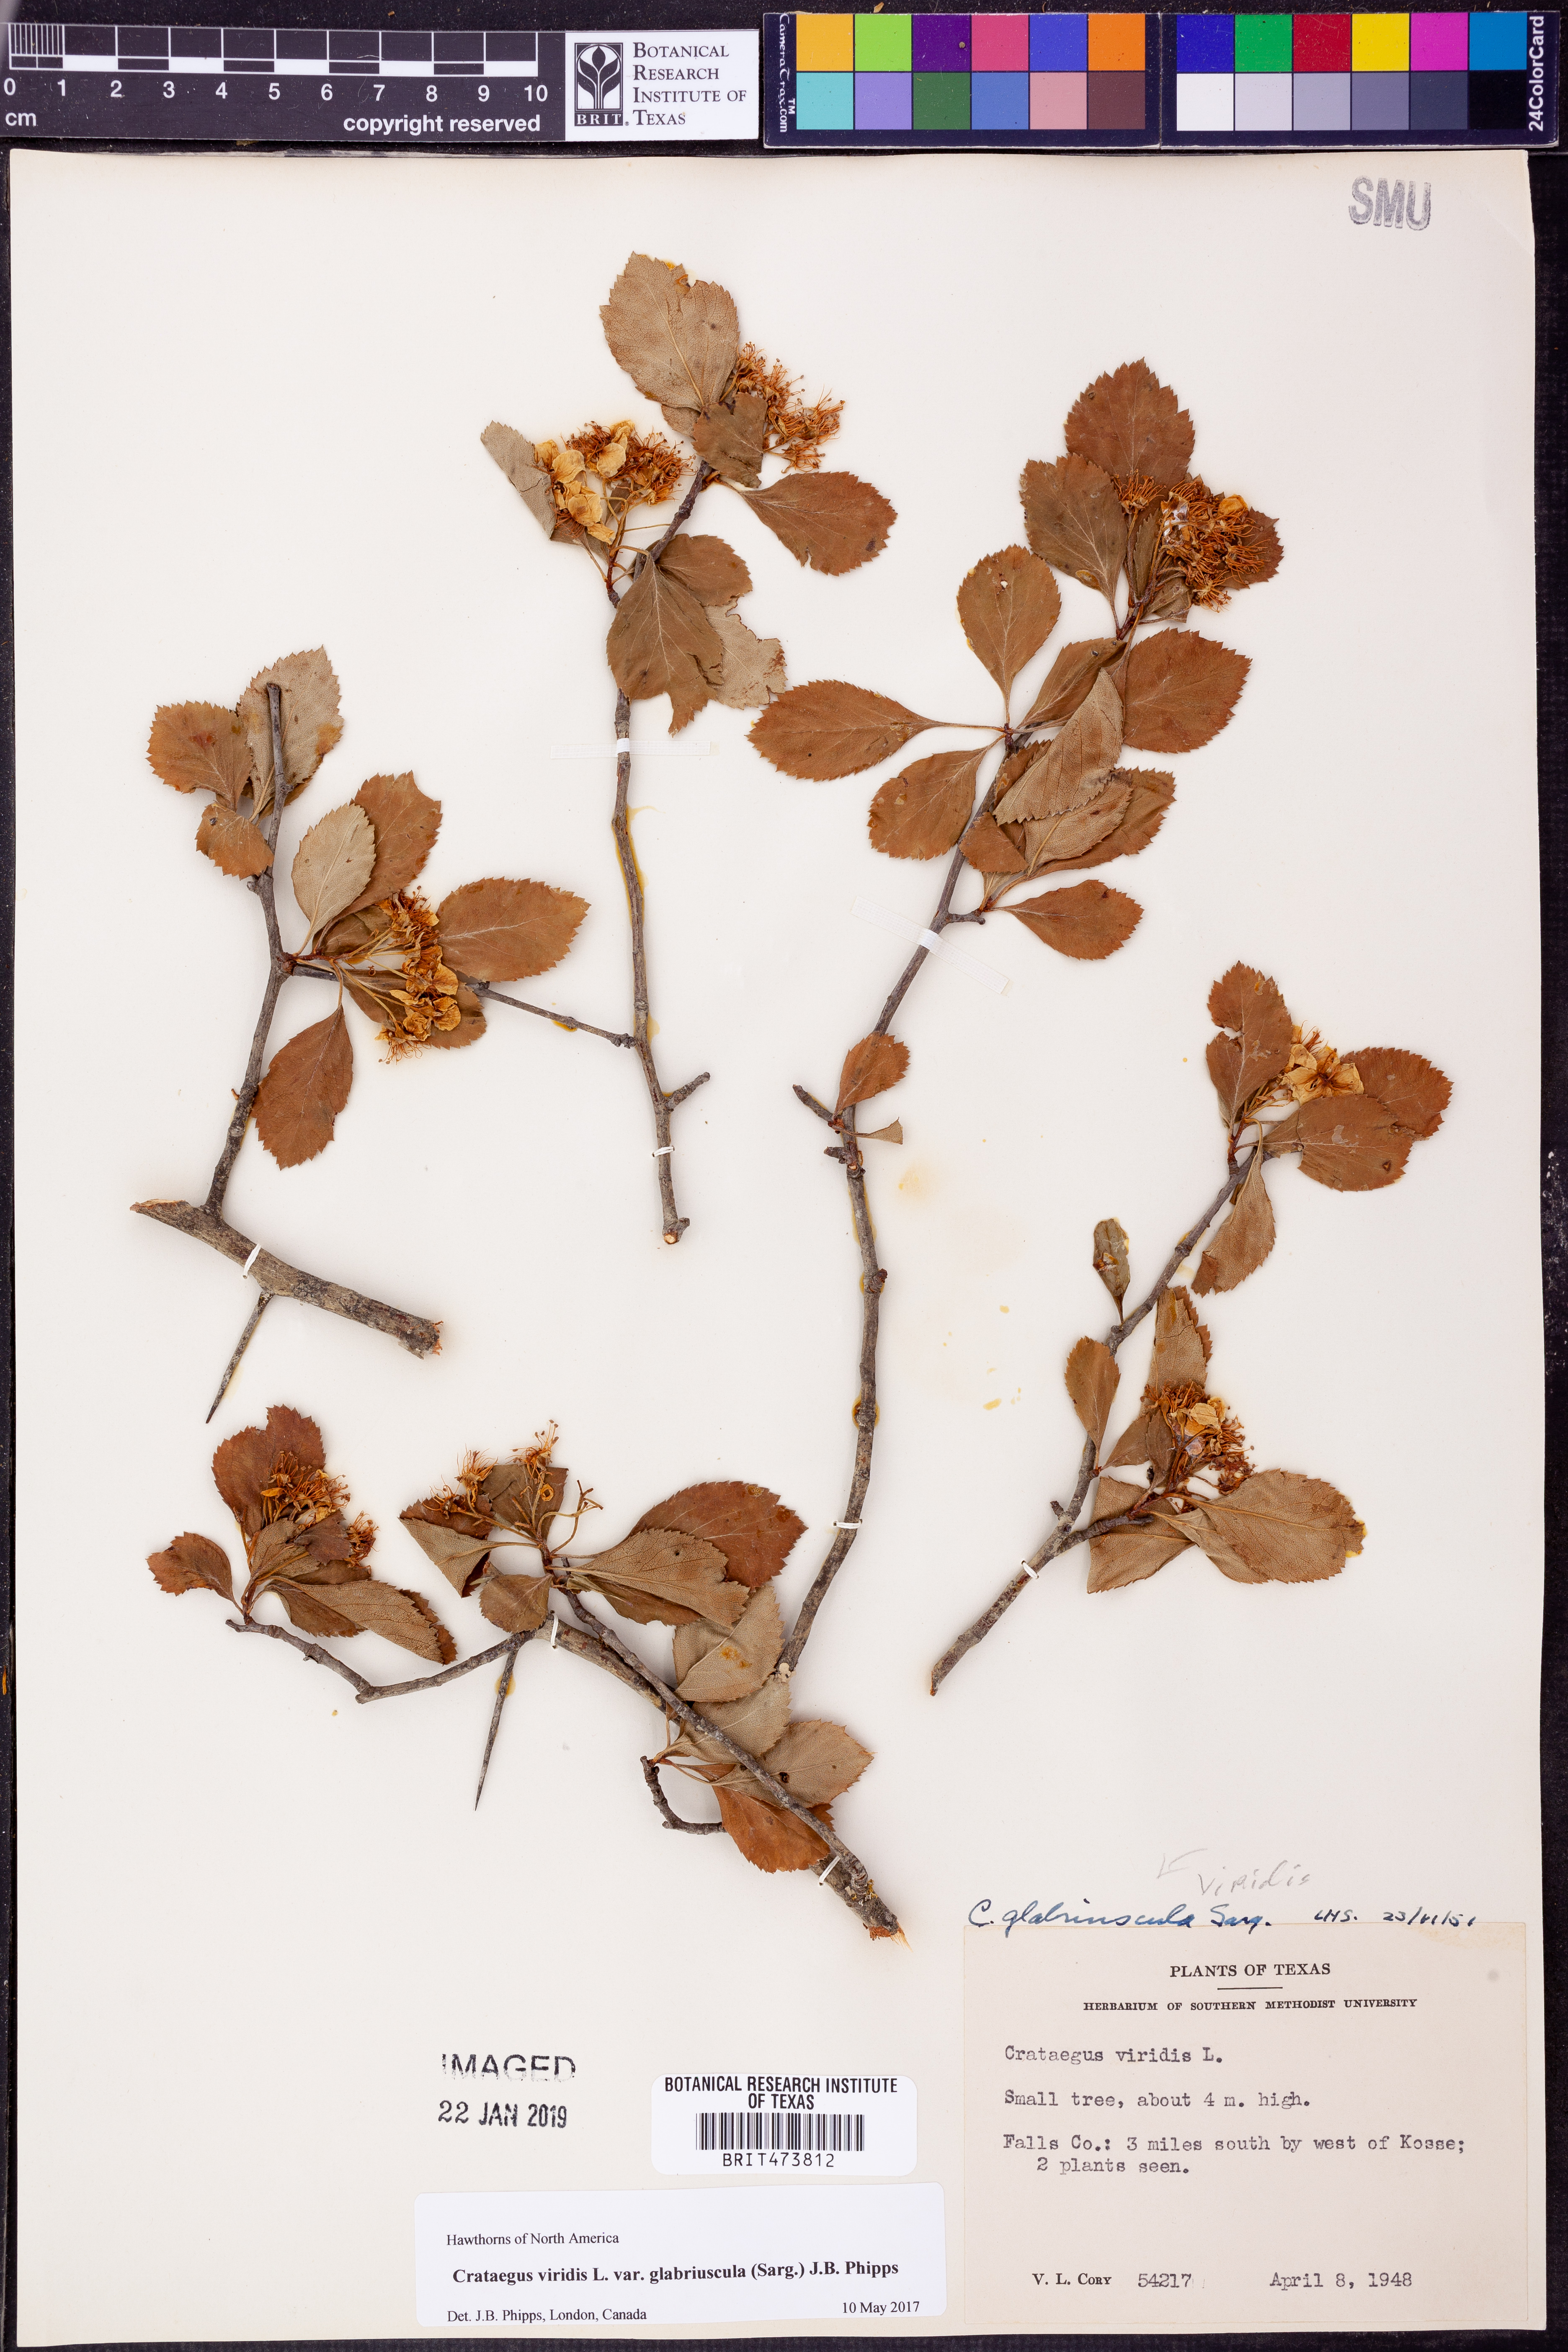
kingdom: Plantae
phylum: Tracheophyta
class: Magnoliopsida
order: Rosales
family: Rosaceae
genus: Crataegus
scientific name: Crataegus viridis
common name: Southernthorn
